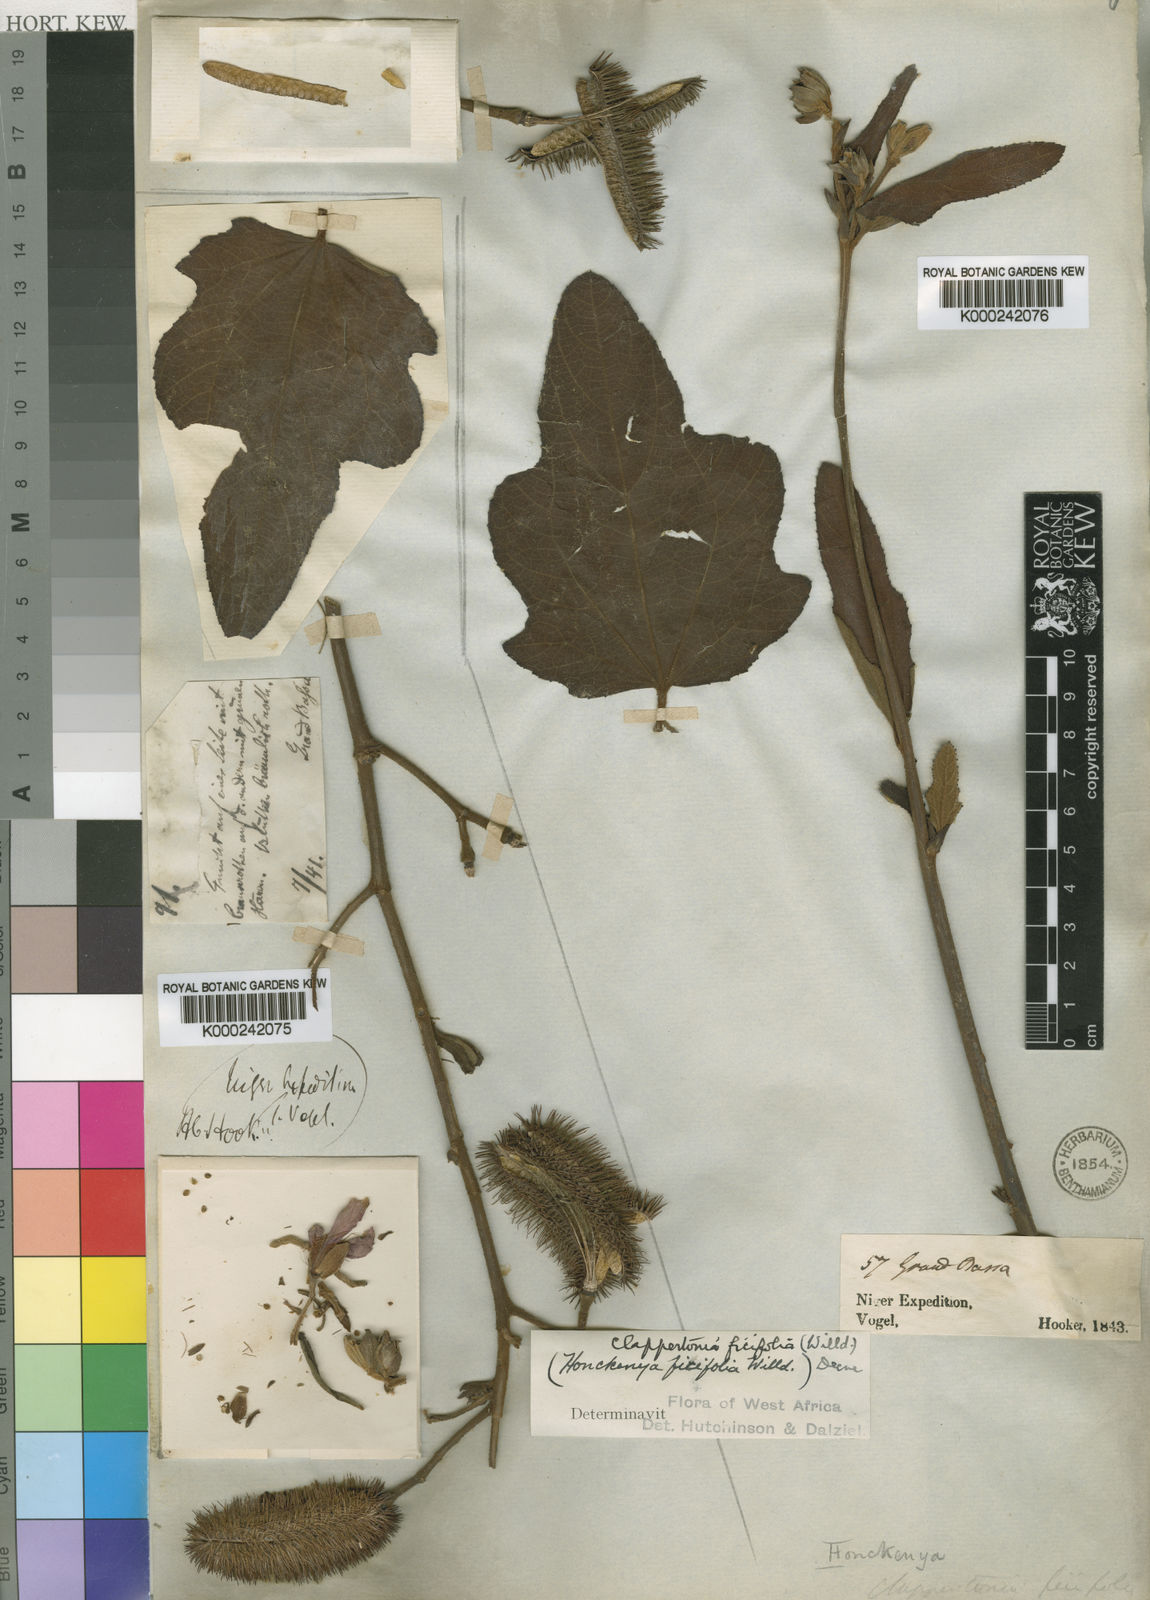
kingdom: Plantae
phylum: Tracheophyta
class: Magnoliopsida
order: Malvales
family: Malvaceae
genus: Clappertonia
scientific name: Clappertonia ficifolia
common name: Bolo-bolo
